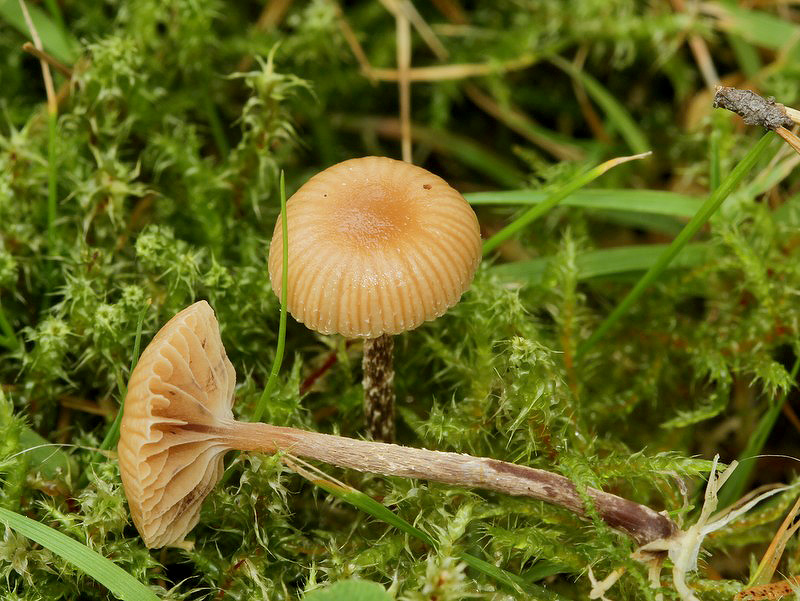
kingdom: Fungi
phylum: Basidiomycota
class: Agaricomycetes
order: Agaricales
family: Strophariaceae
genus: Deconica
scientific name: Deconica crobula
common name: træflis-stråhat
